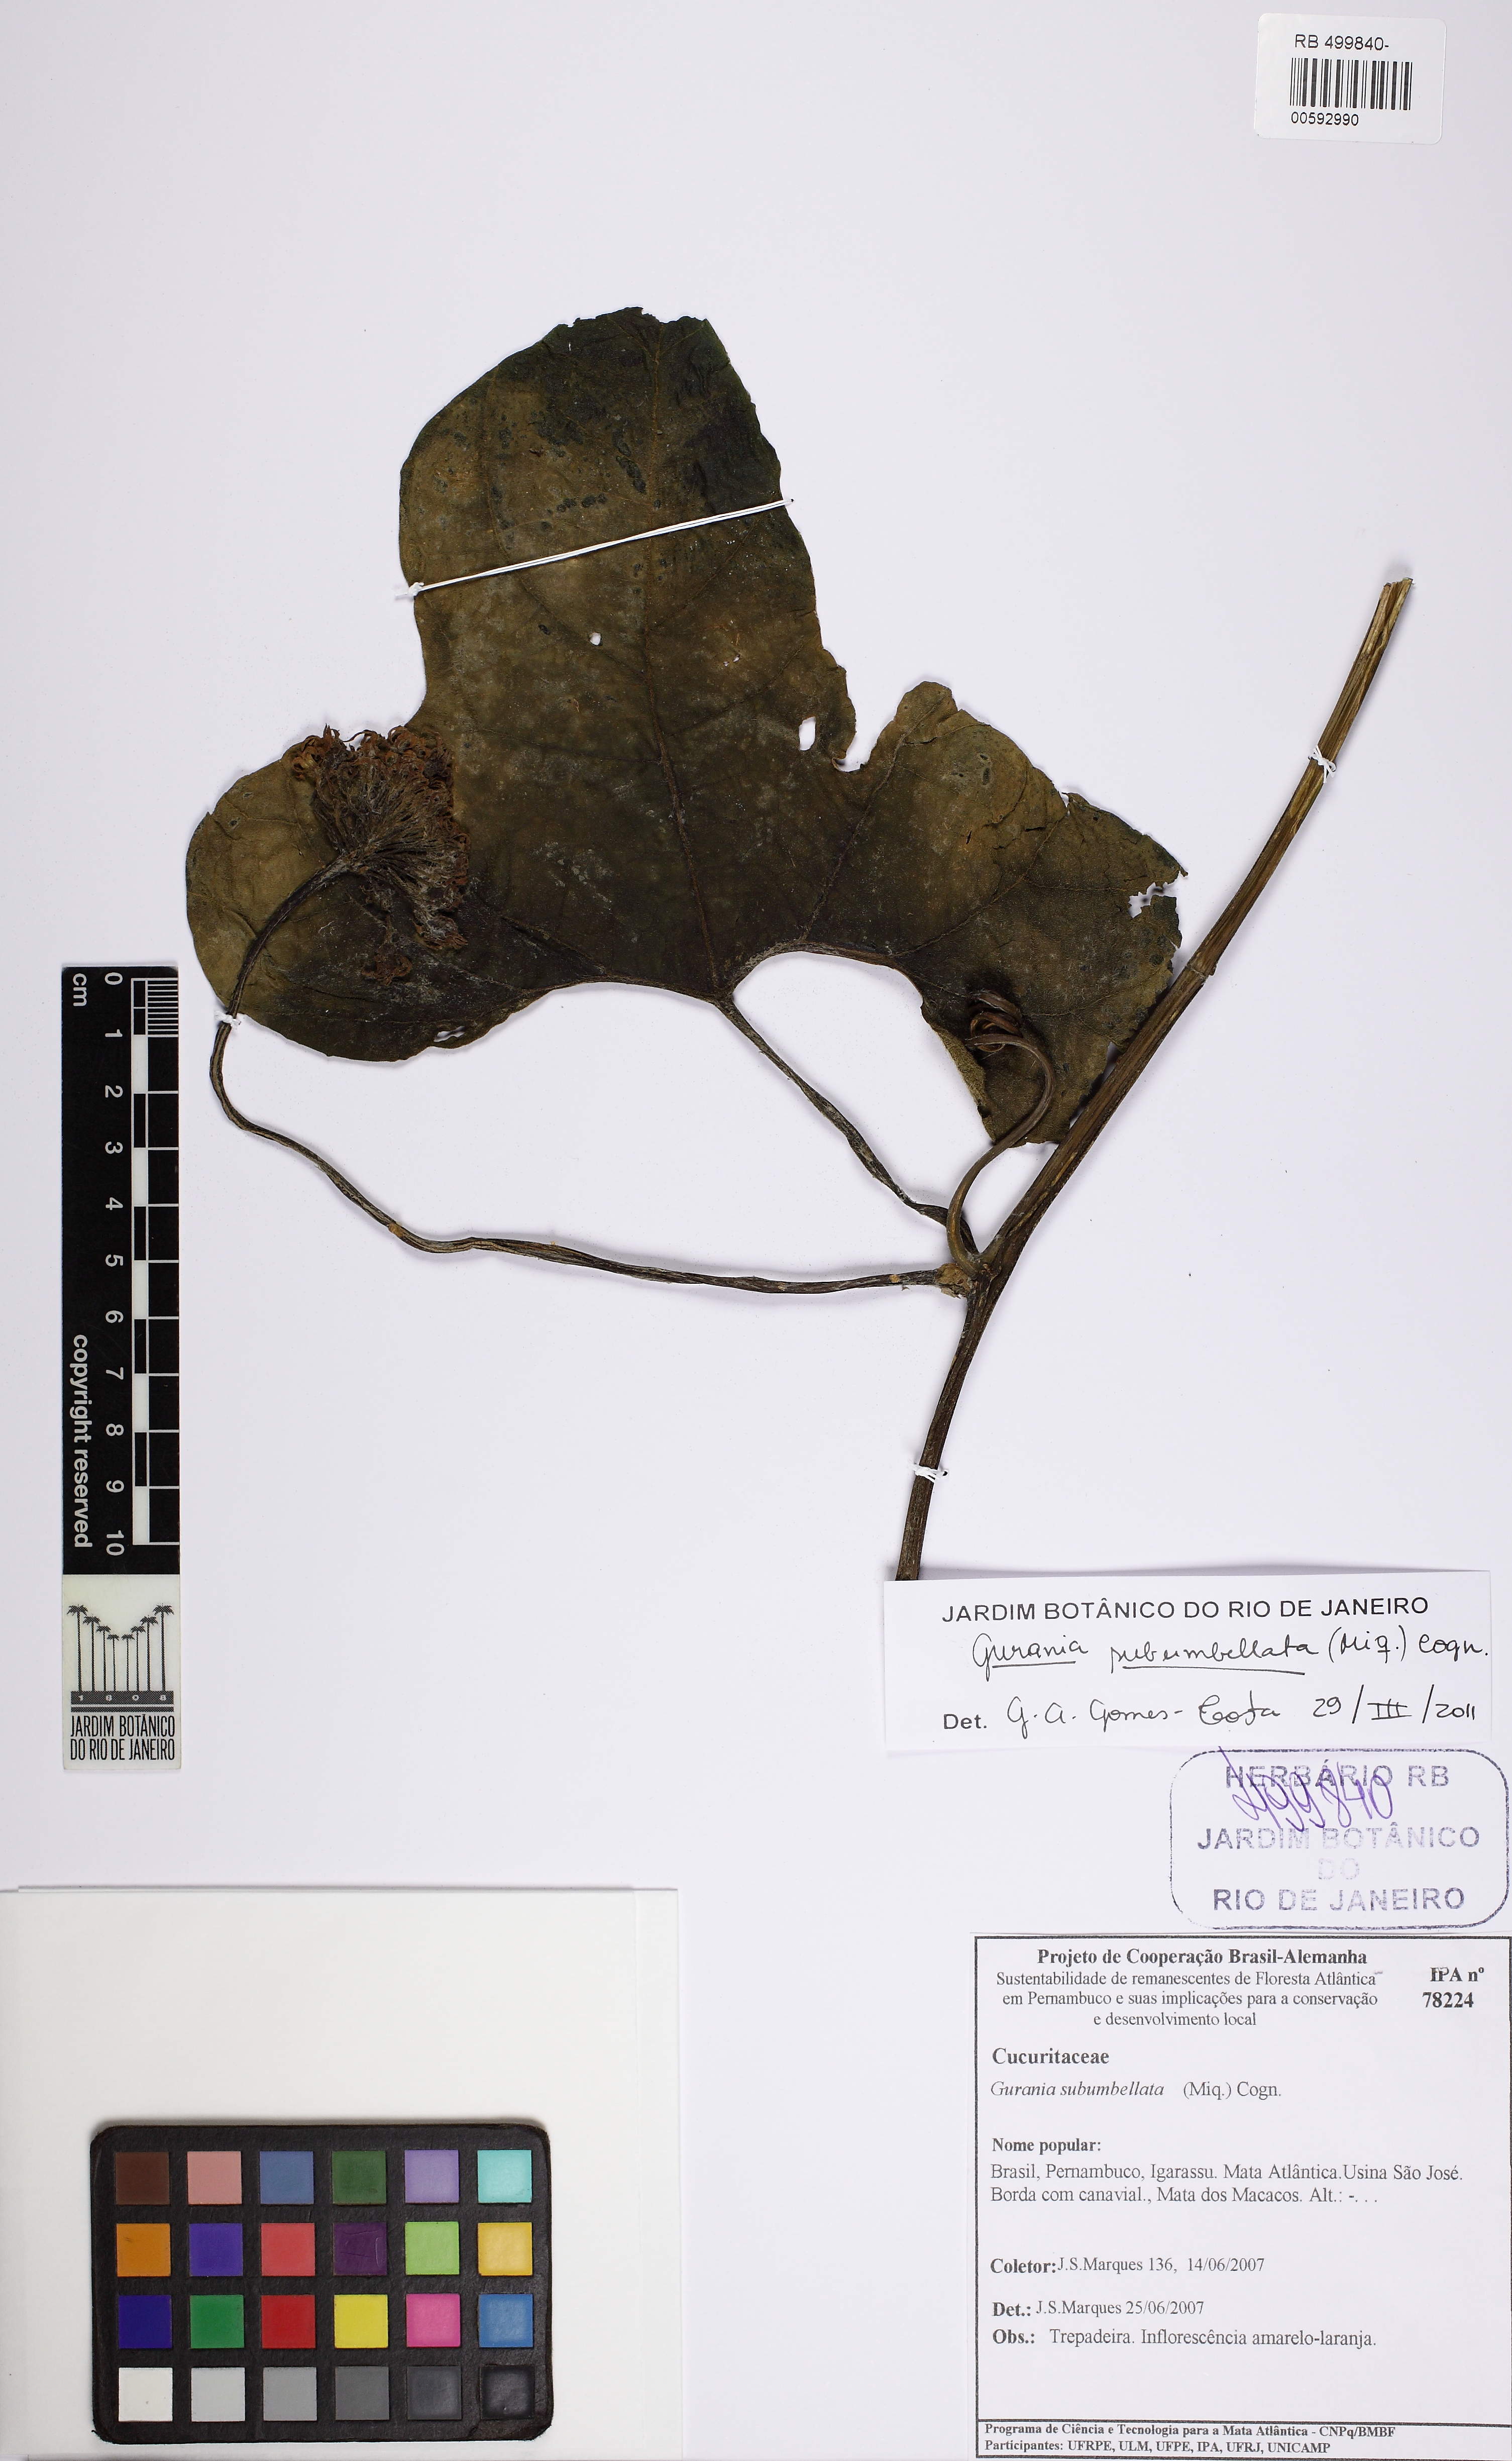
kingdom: Plantae
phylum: Tracheophyta
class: Magnoliopsida
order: Cucurbitales
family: Cucurbitaceae
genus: Gurania
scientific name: Gurania
